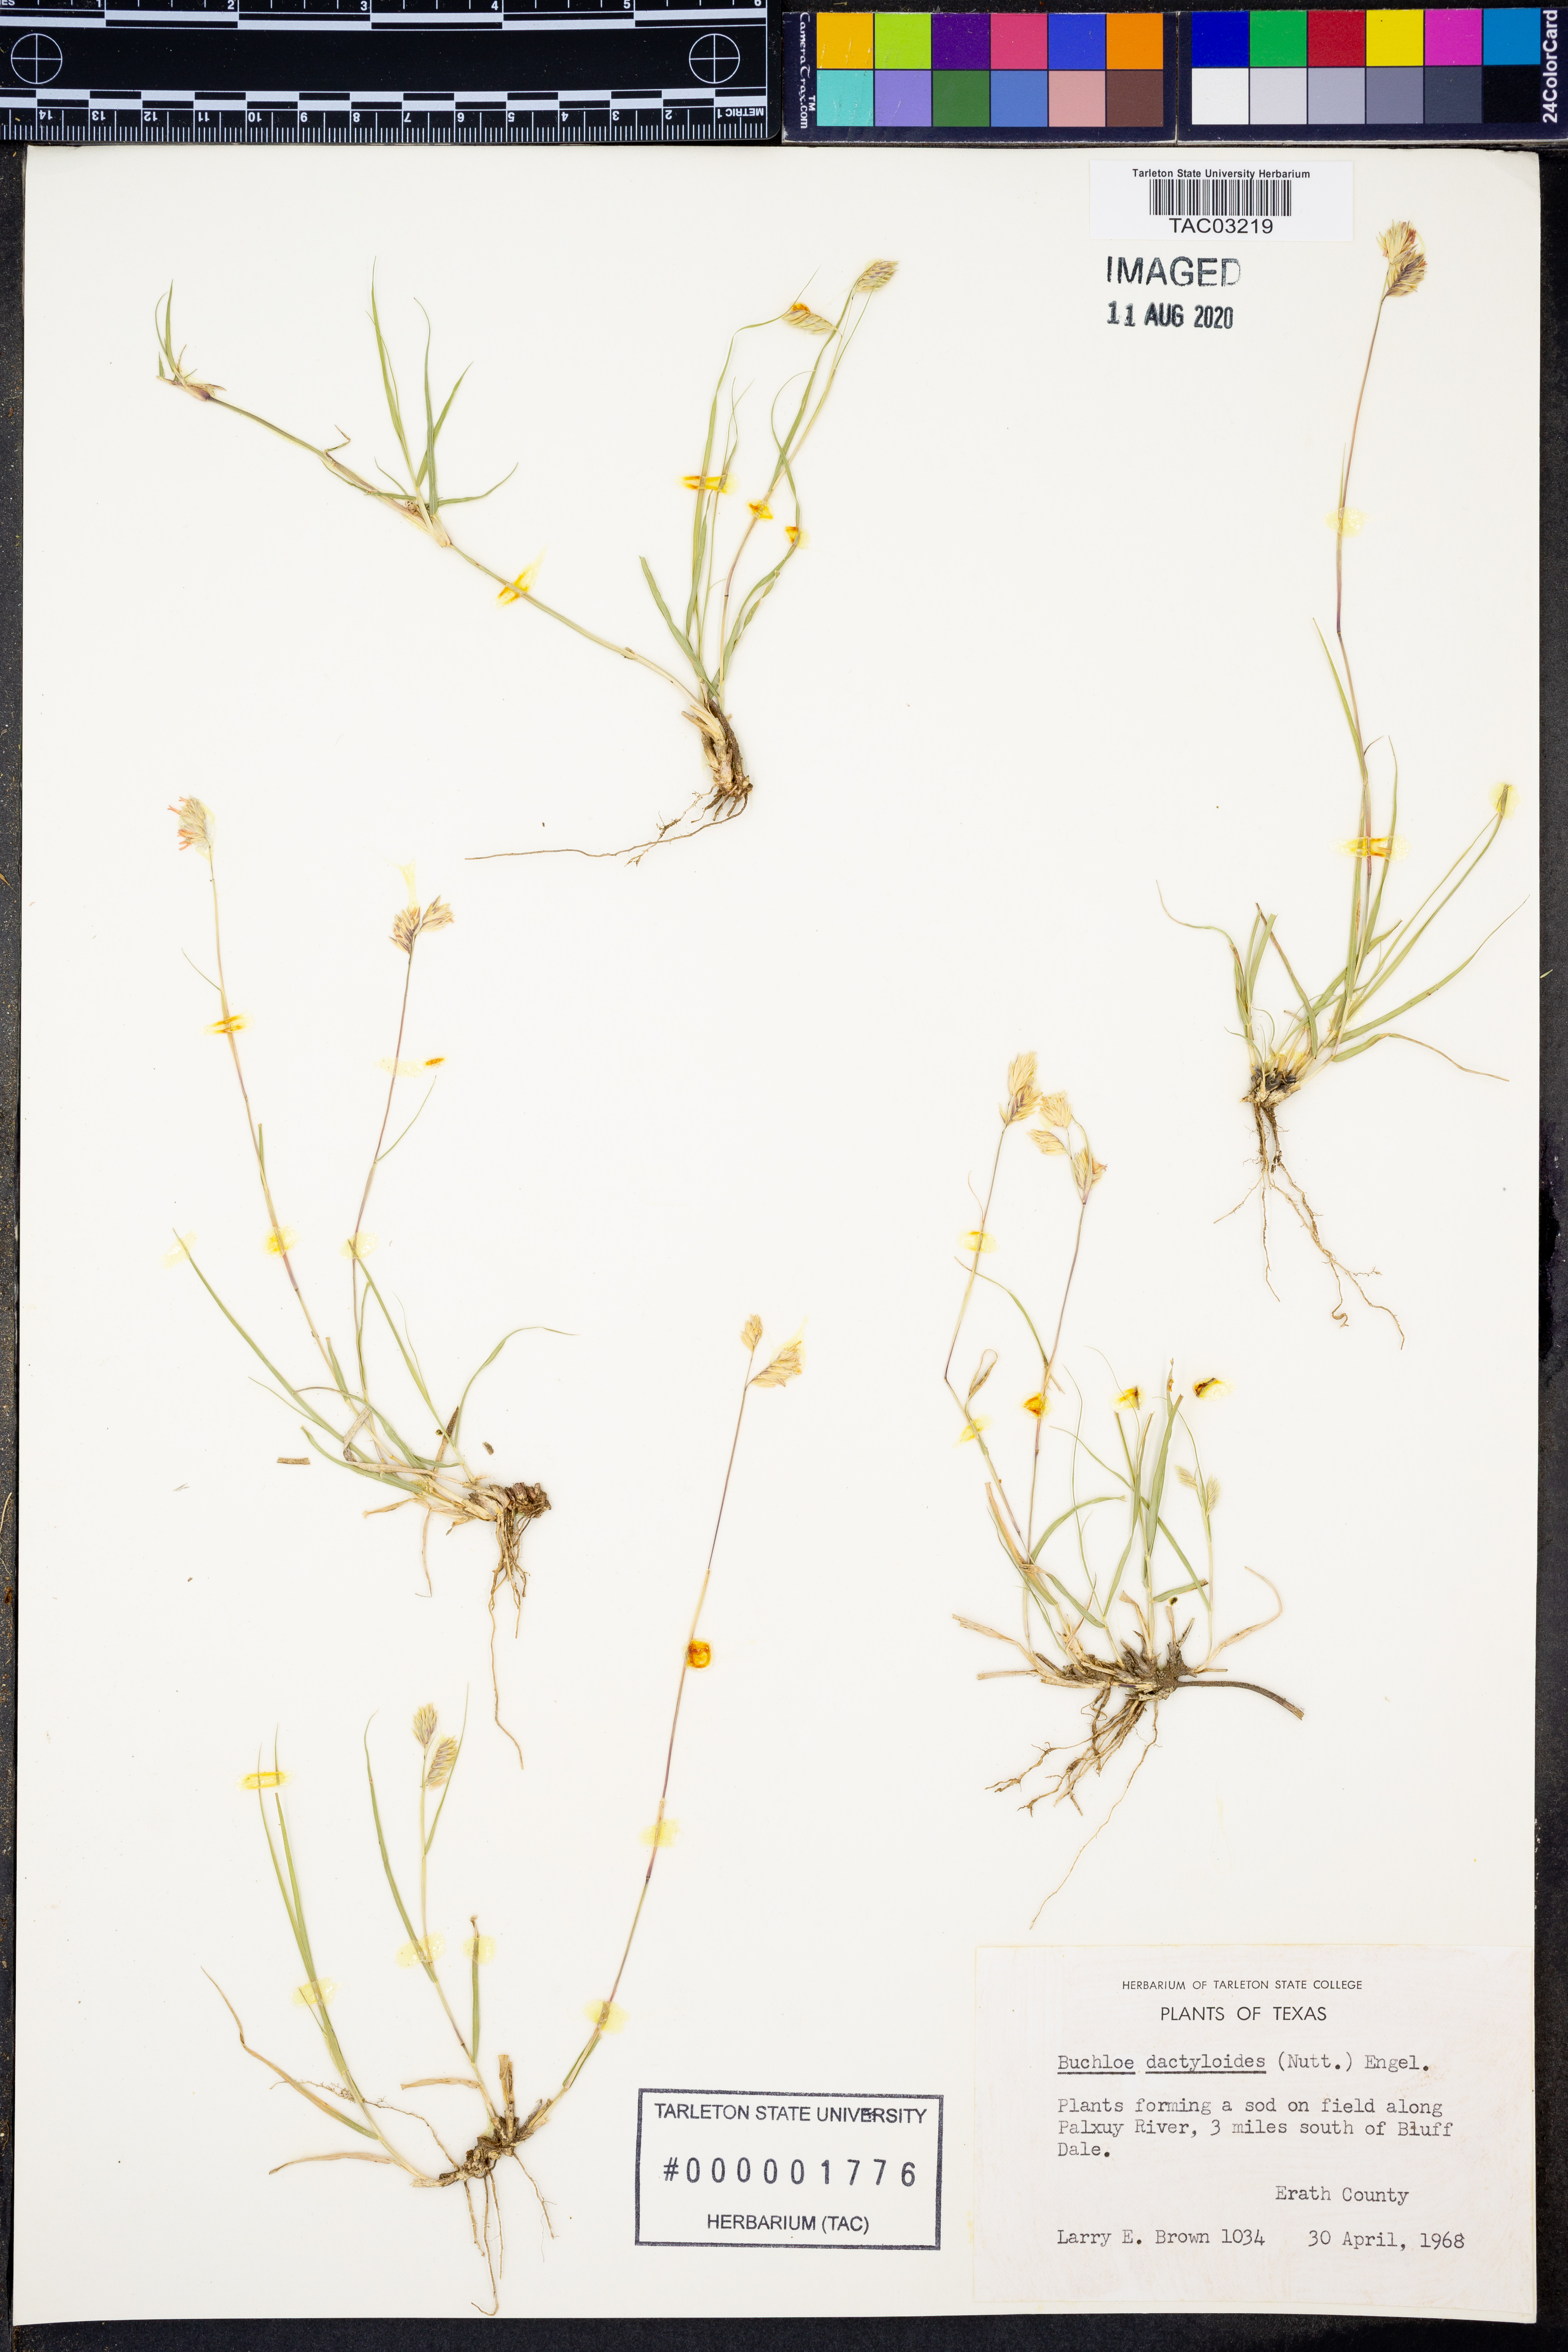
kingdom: Plantae
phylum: Tracheophyta
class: Liliopsida
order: Poales
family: Poaceae
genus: Bouteloua
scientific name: Bouteloua dactyloides
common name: Buffalo grass
